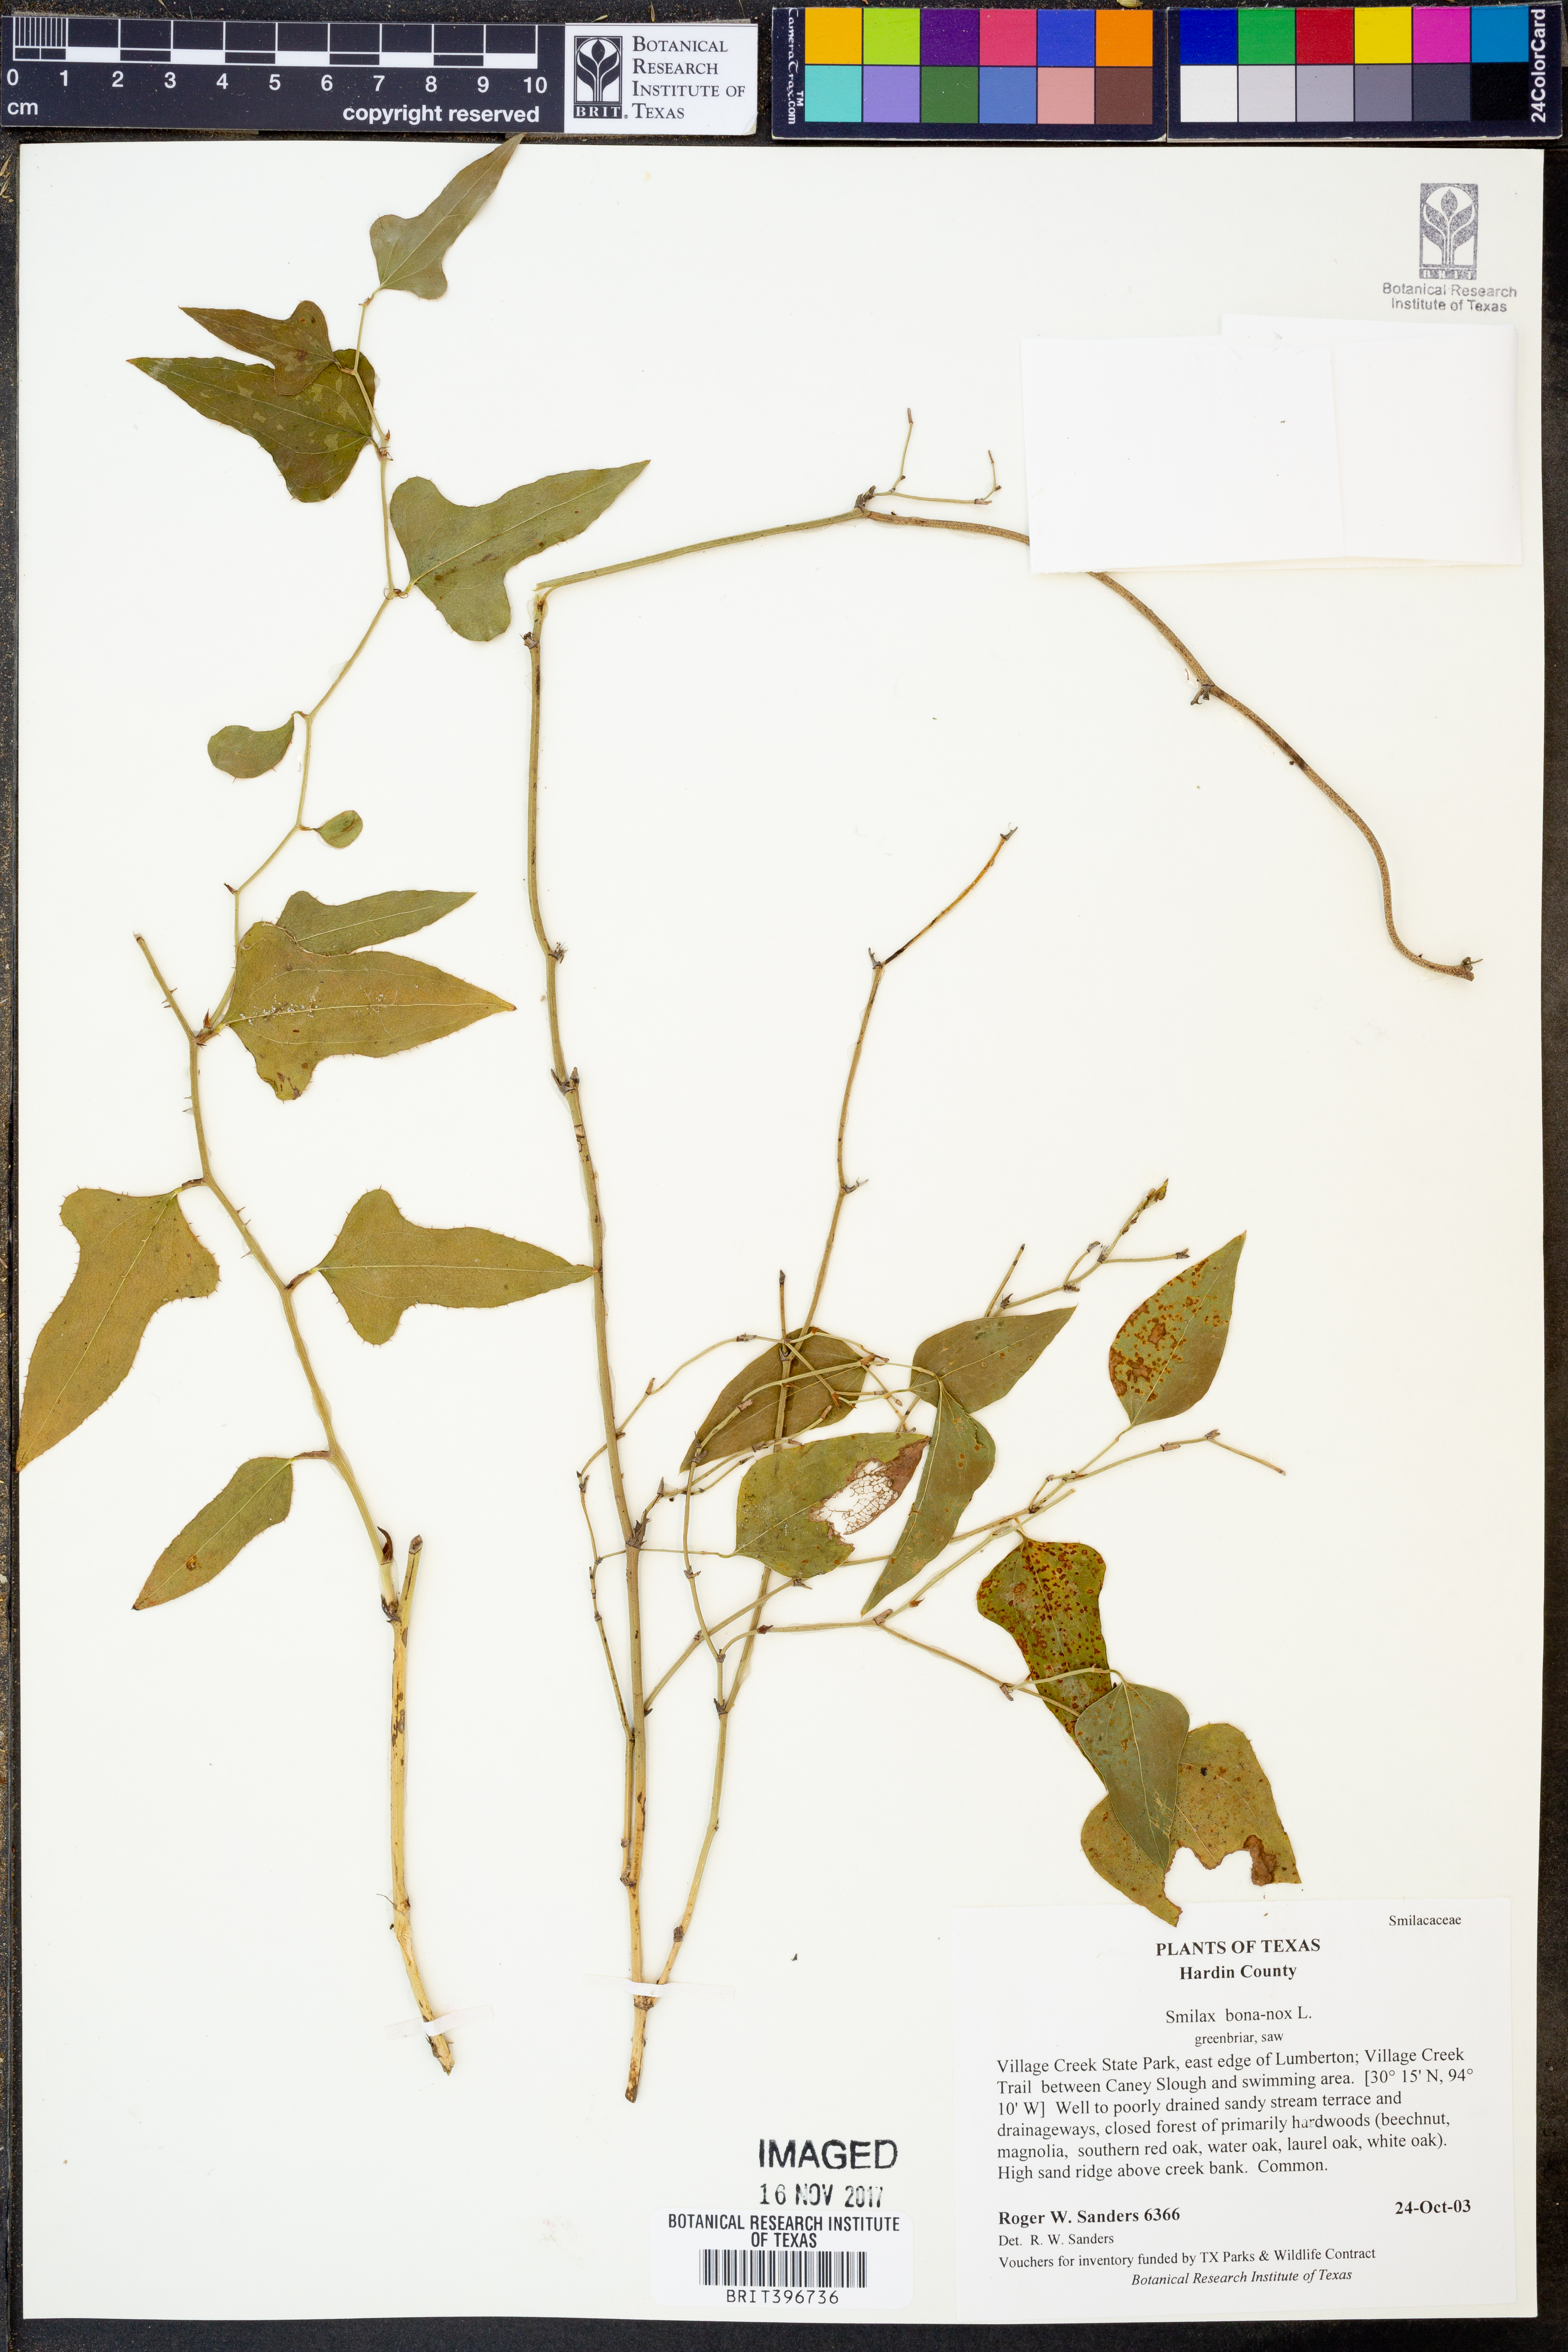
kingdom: Plantae
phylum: Tracheophyta
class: Liliopsida
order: Liliales
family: Smilacaceae
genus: Smilax
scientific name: Smilax bona-nox
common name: Catbrier
